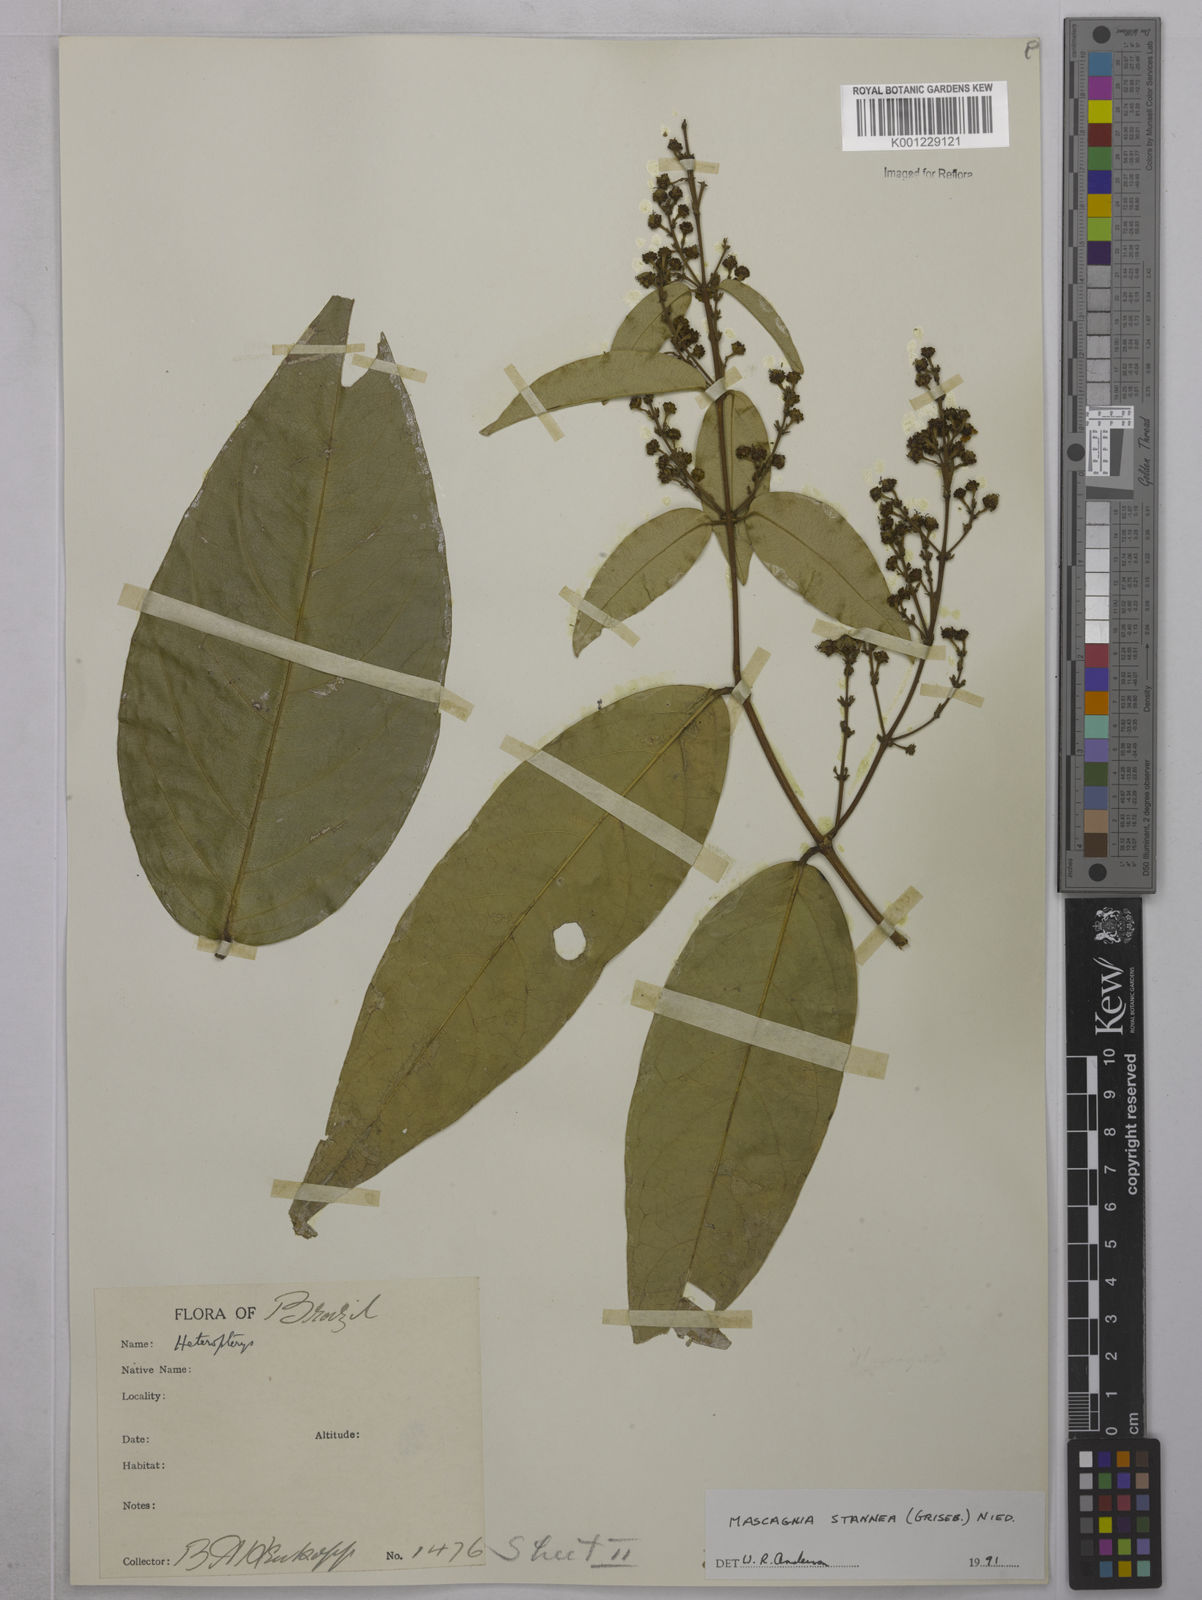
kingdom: Plantae
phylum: Tracheophyta
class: Magnoliopsida
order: Malpighiales
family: Malpighiaceae
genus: Niedenzuella
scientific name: Niedenzuella stannea
